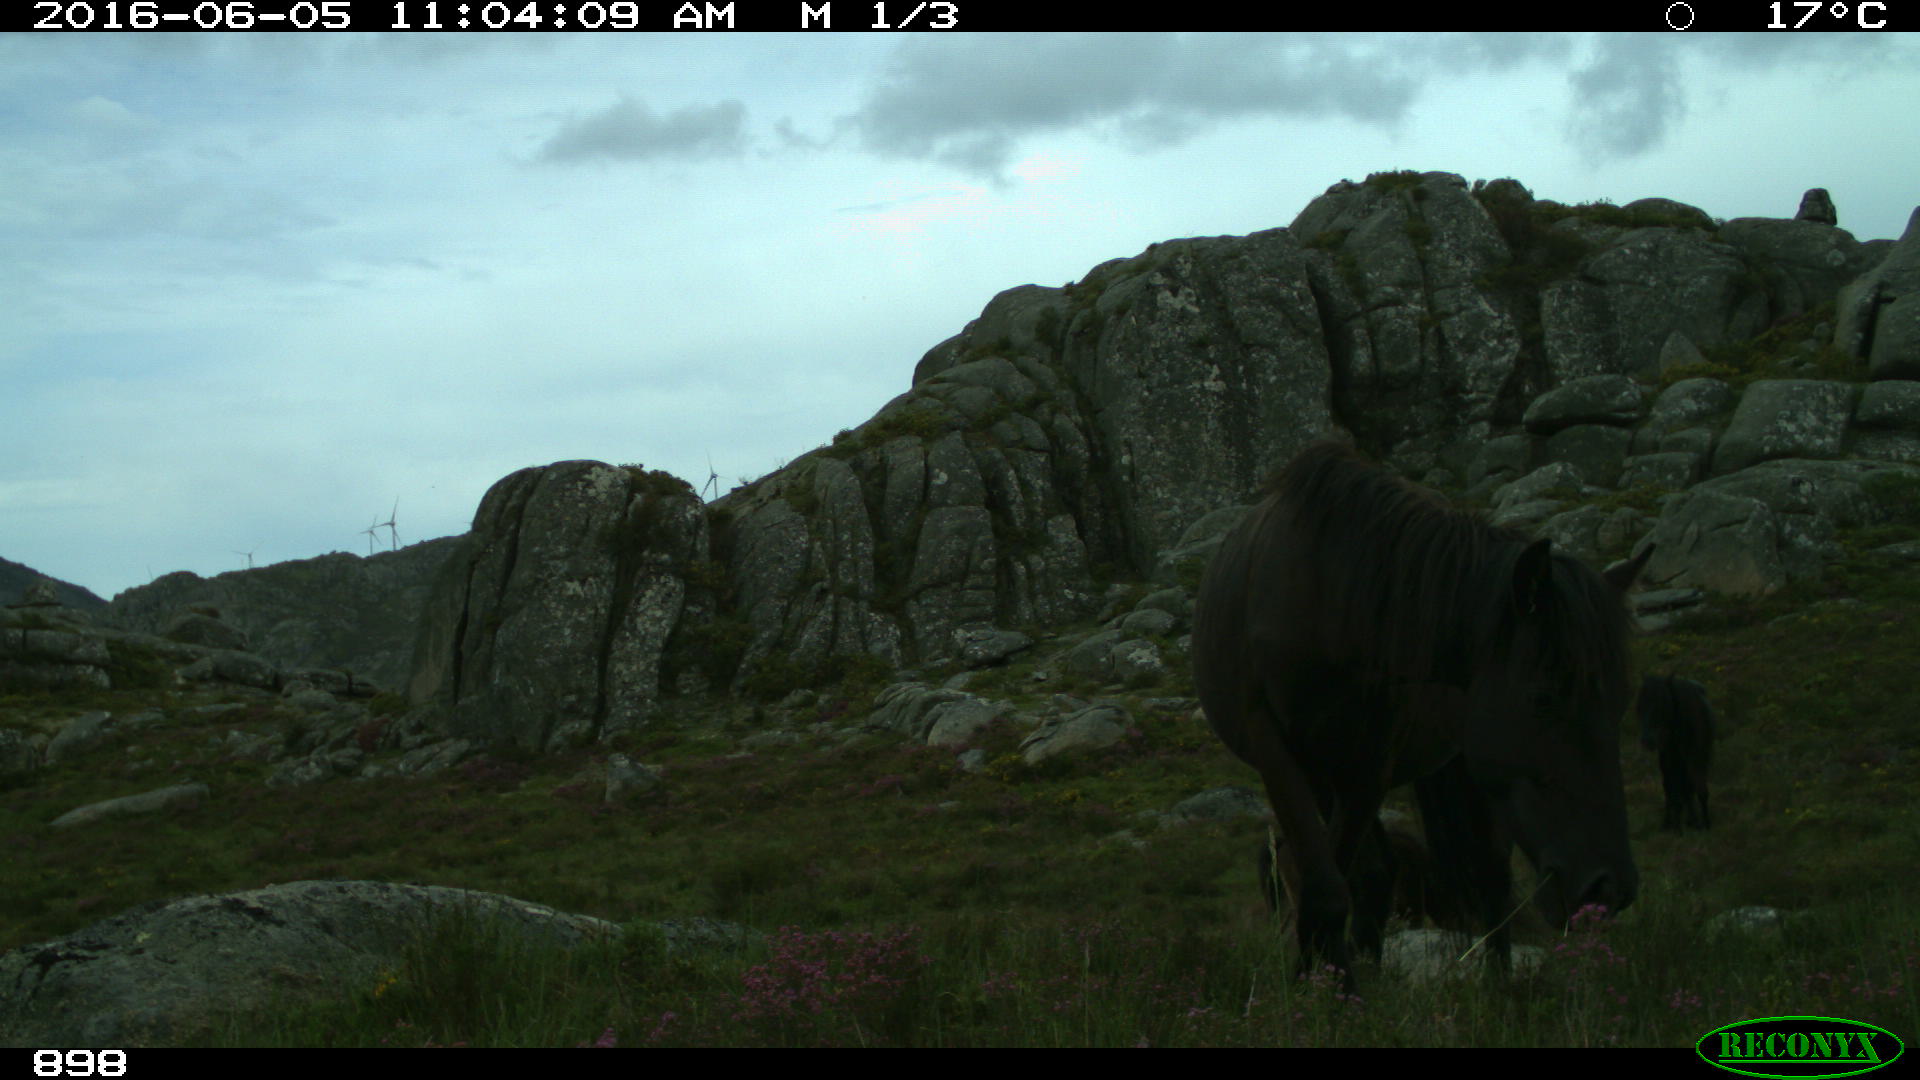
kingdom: Animalia
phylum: Chordata
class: Mammalia
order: Perissodactyla
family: Equidae
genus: Equus
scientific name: Equus caballus
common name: Horse
